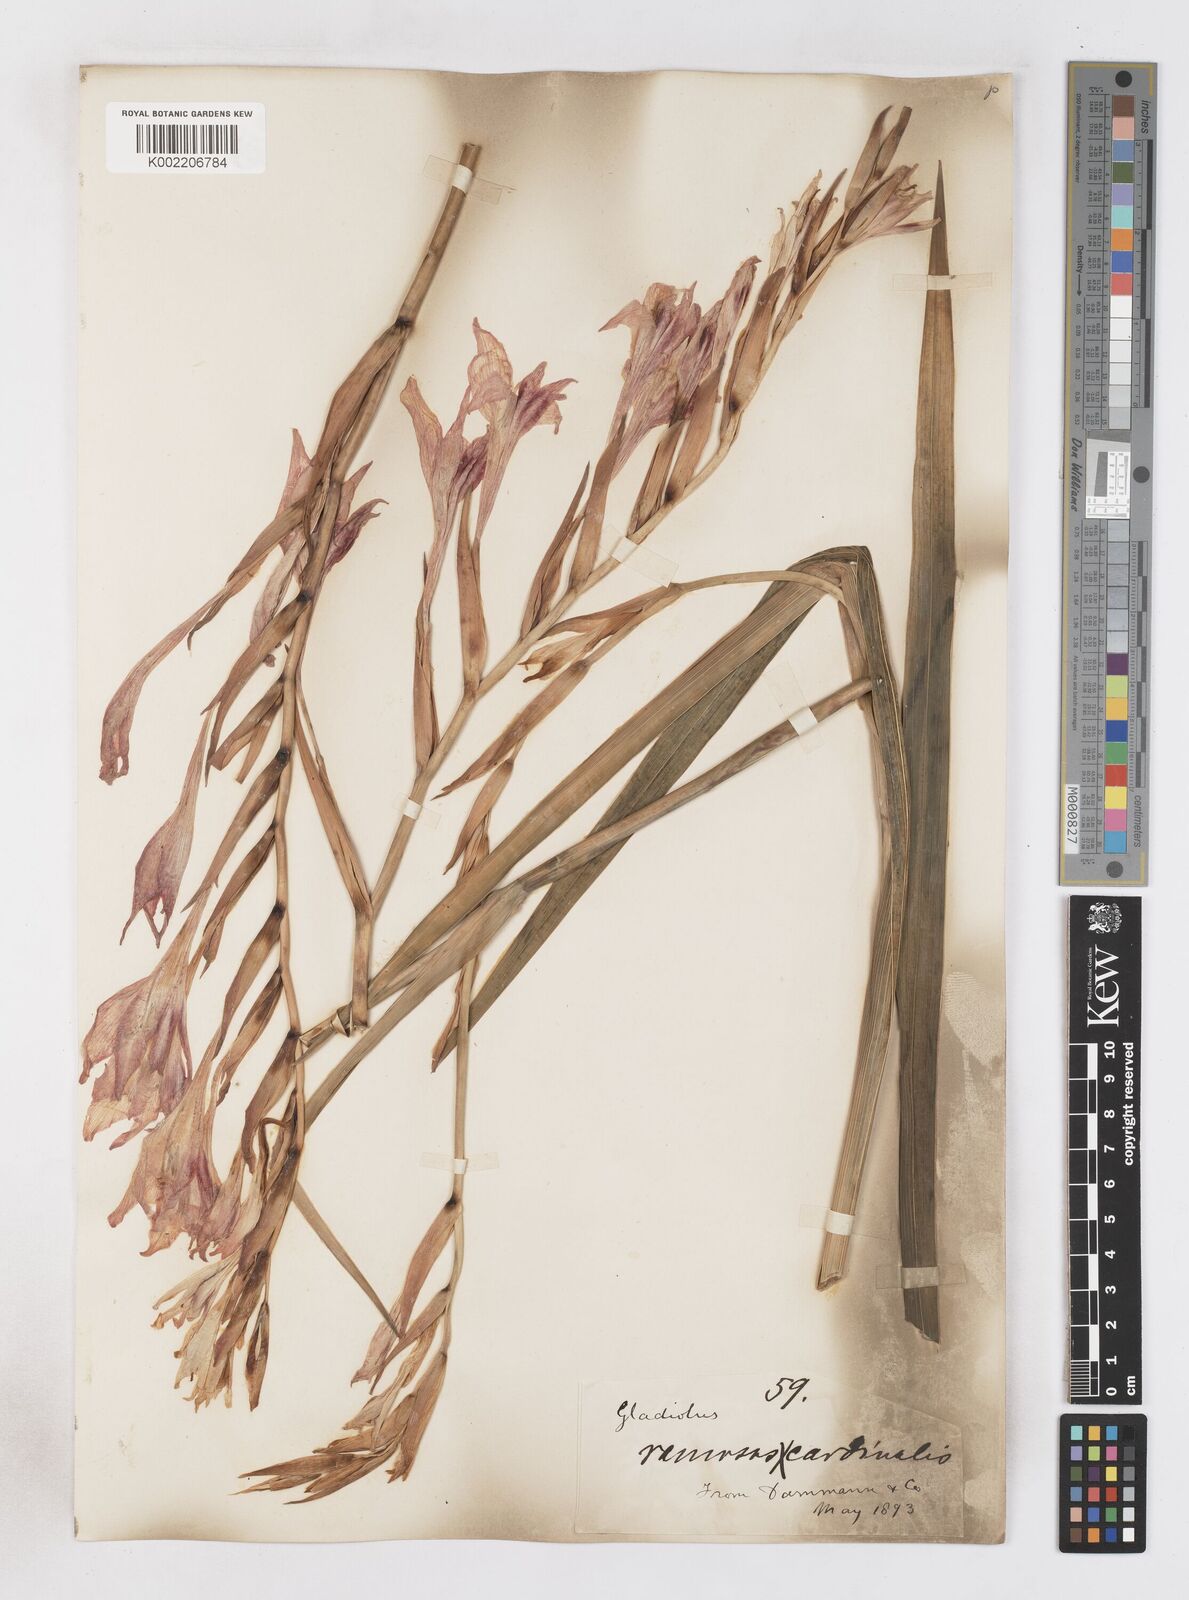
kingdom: Plantae
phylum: Tracheophyta
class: Liliopsida
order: Asparagales
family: Iridaceae
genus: Gladiolus
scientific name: Gladiolus
